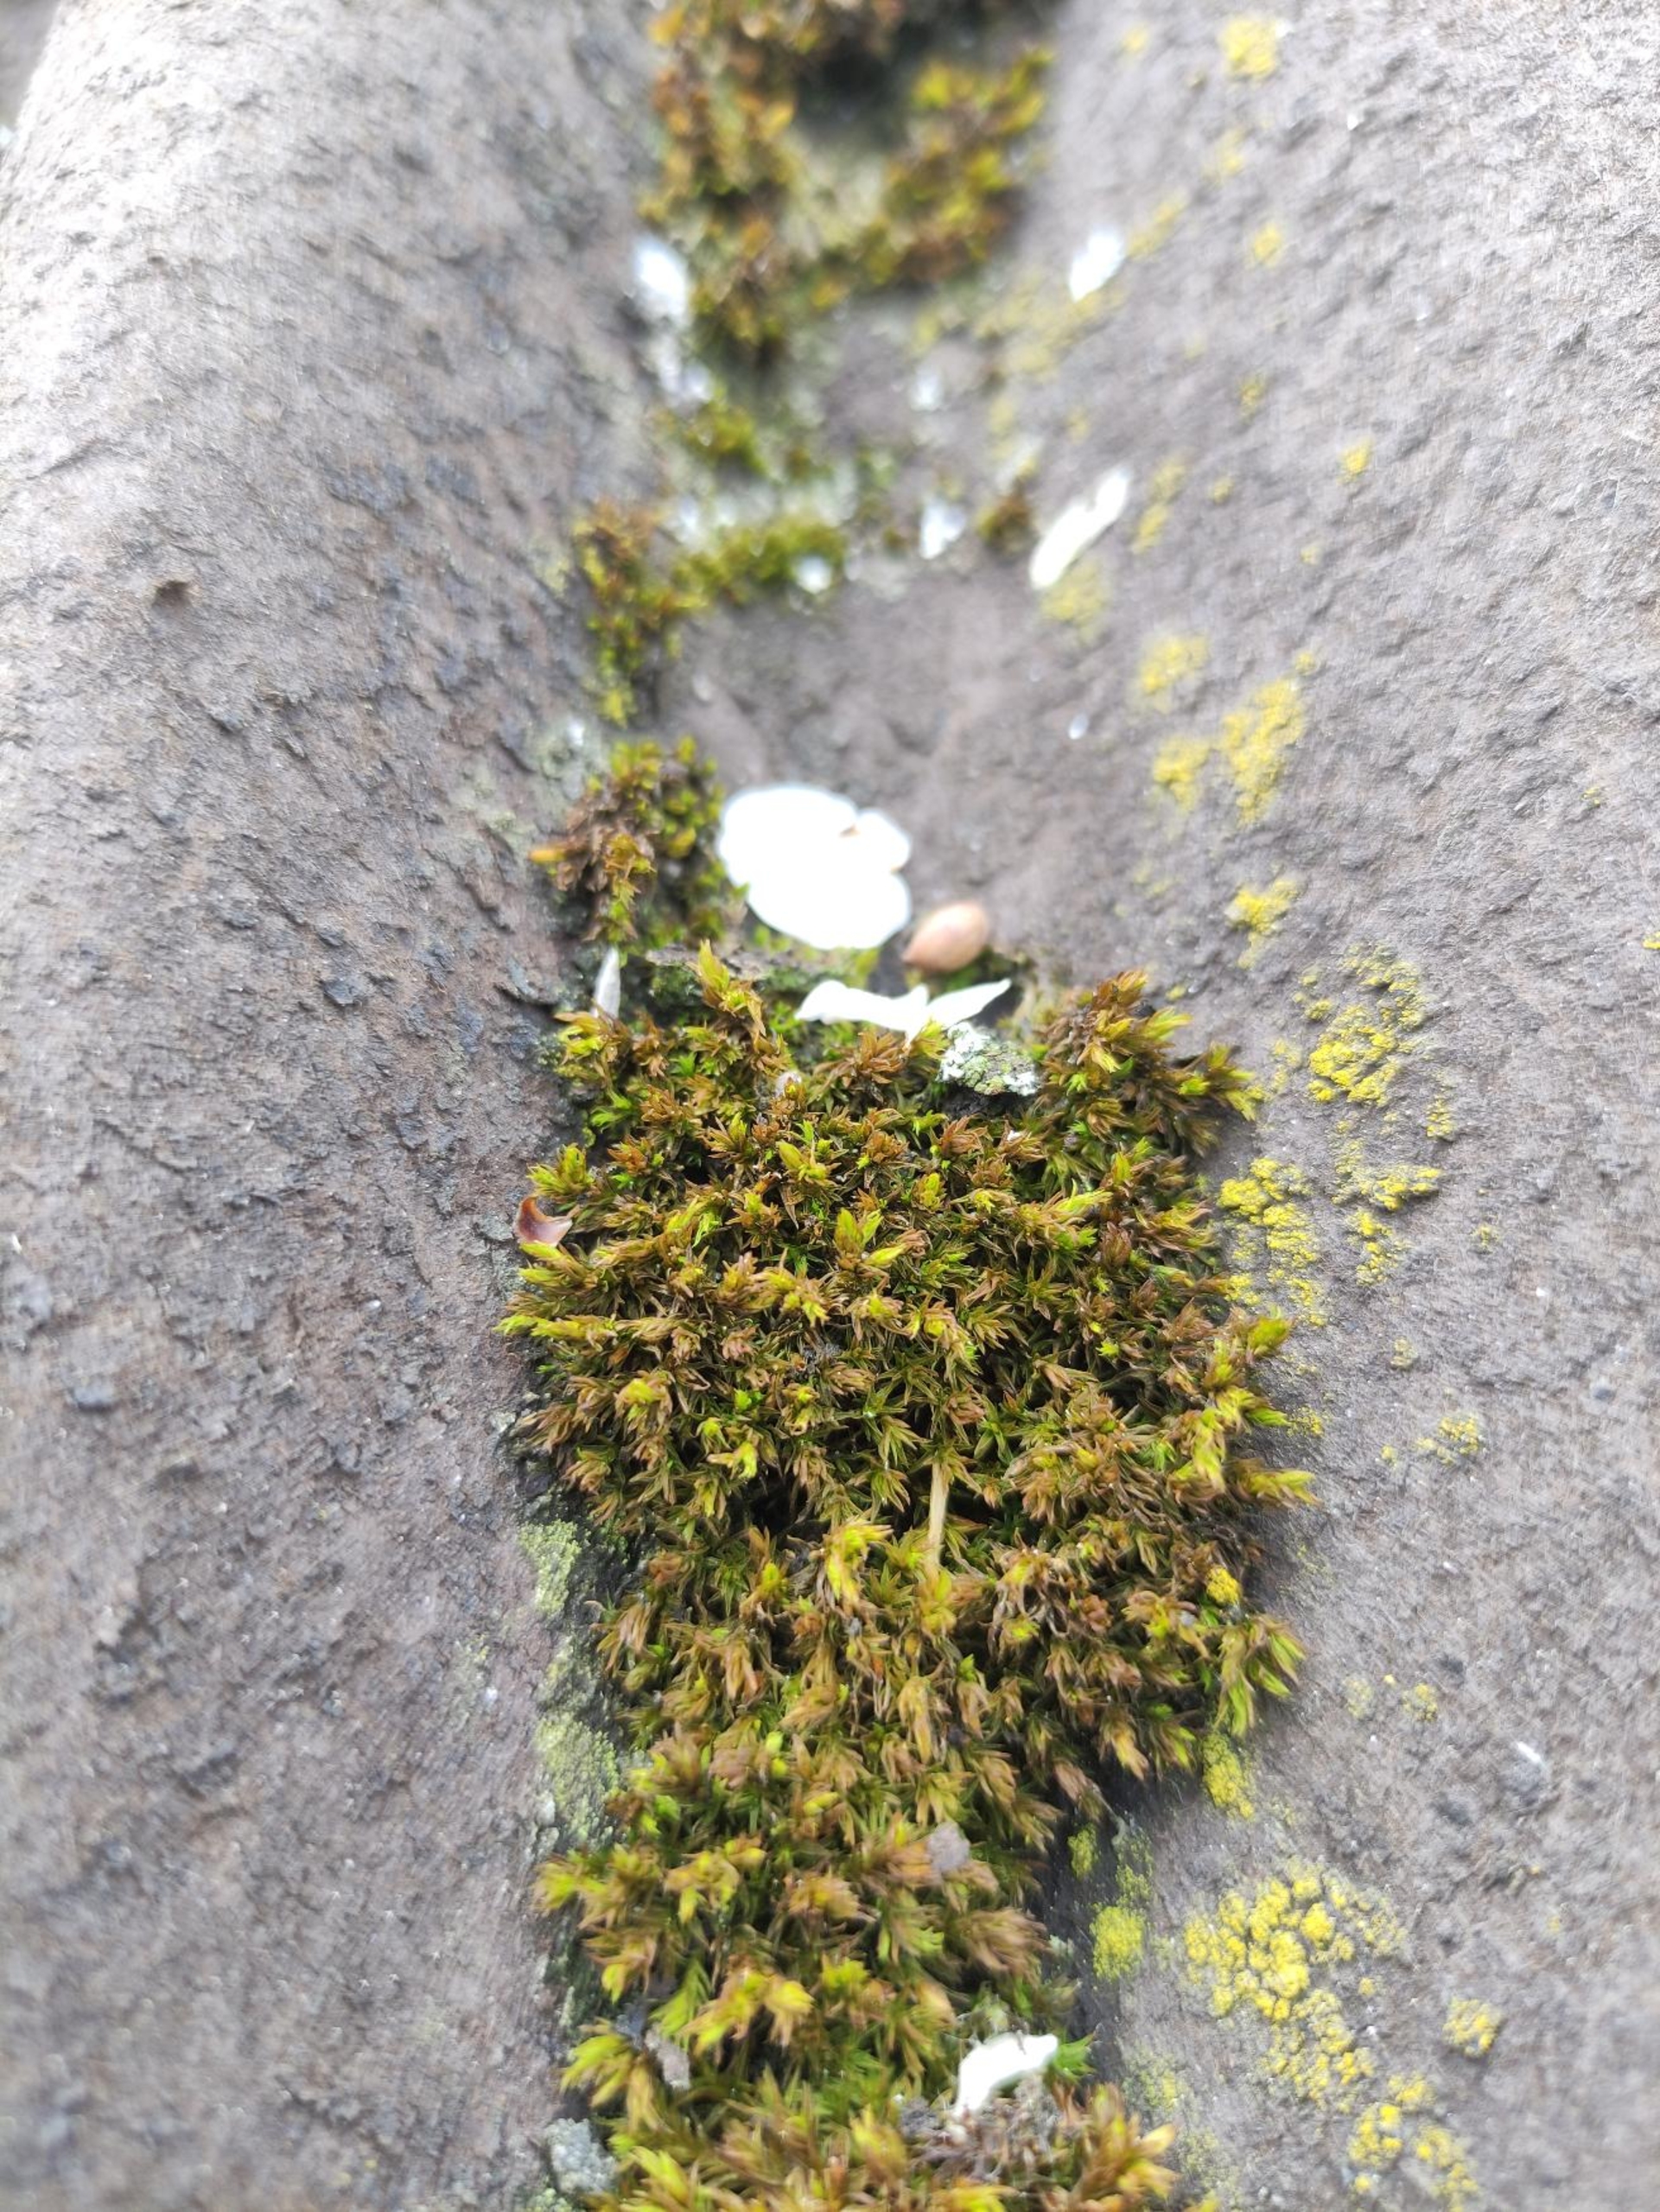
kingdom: Plantae
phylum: Bryophyta
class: Bryopsida
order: Orthotrichales
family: Orthotrichaceae
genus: Orthotrichum
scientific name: Orthotrichum
